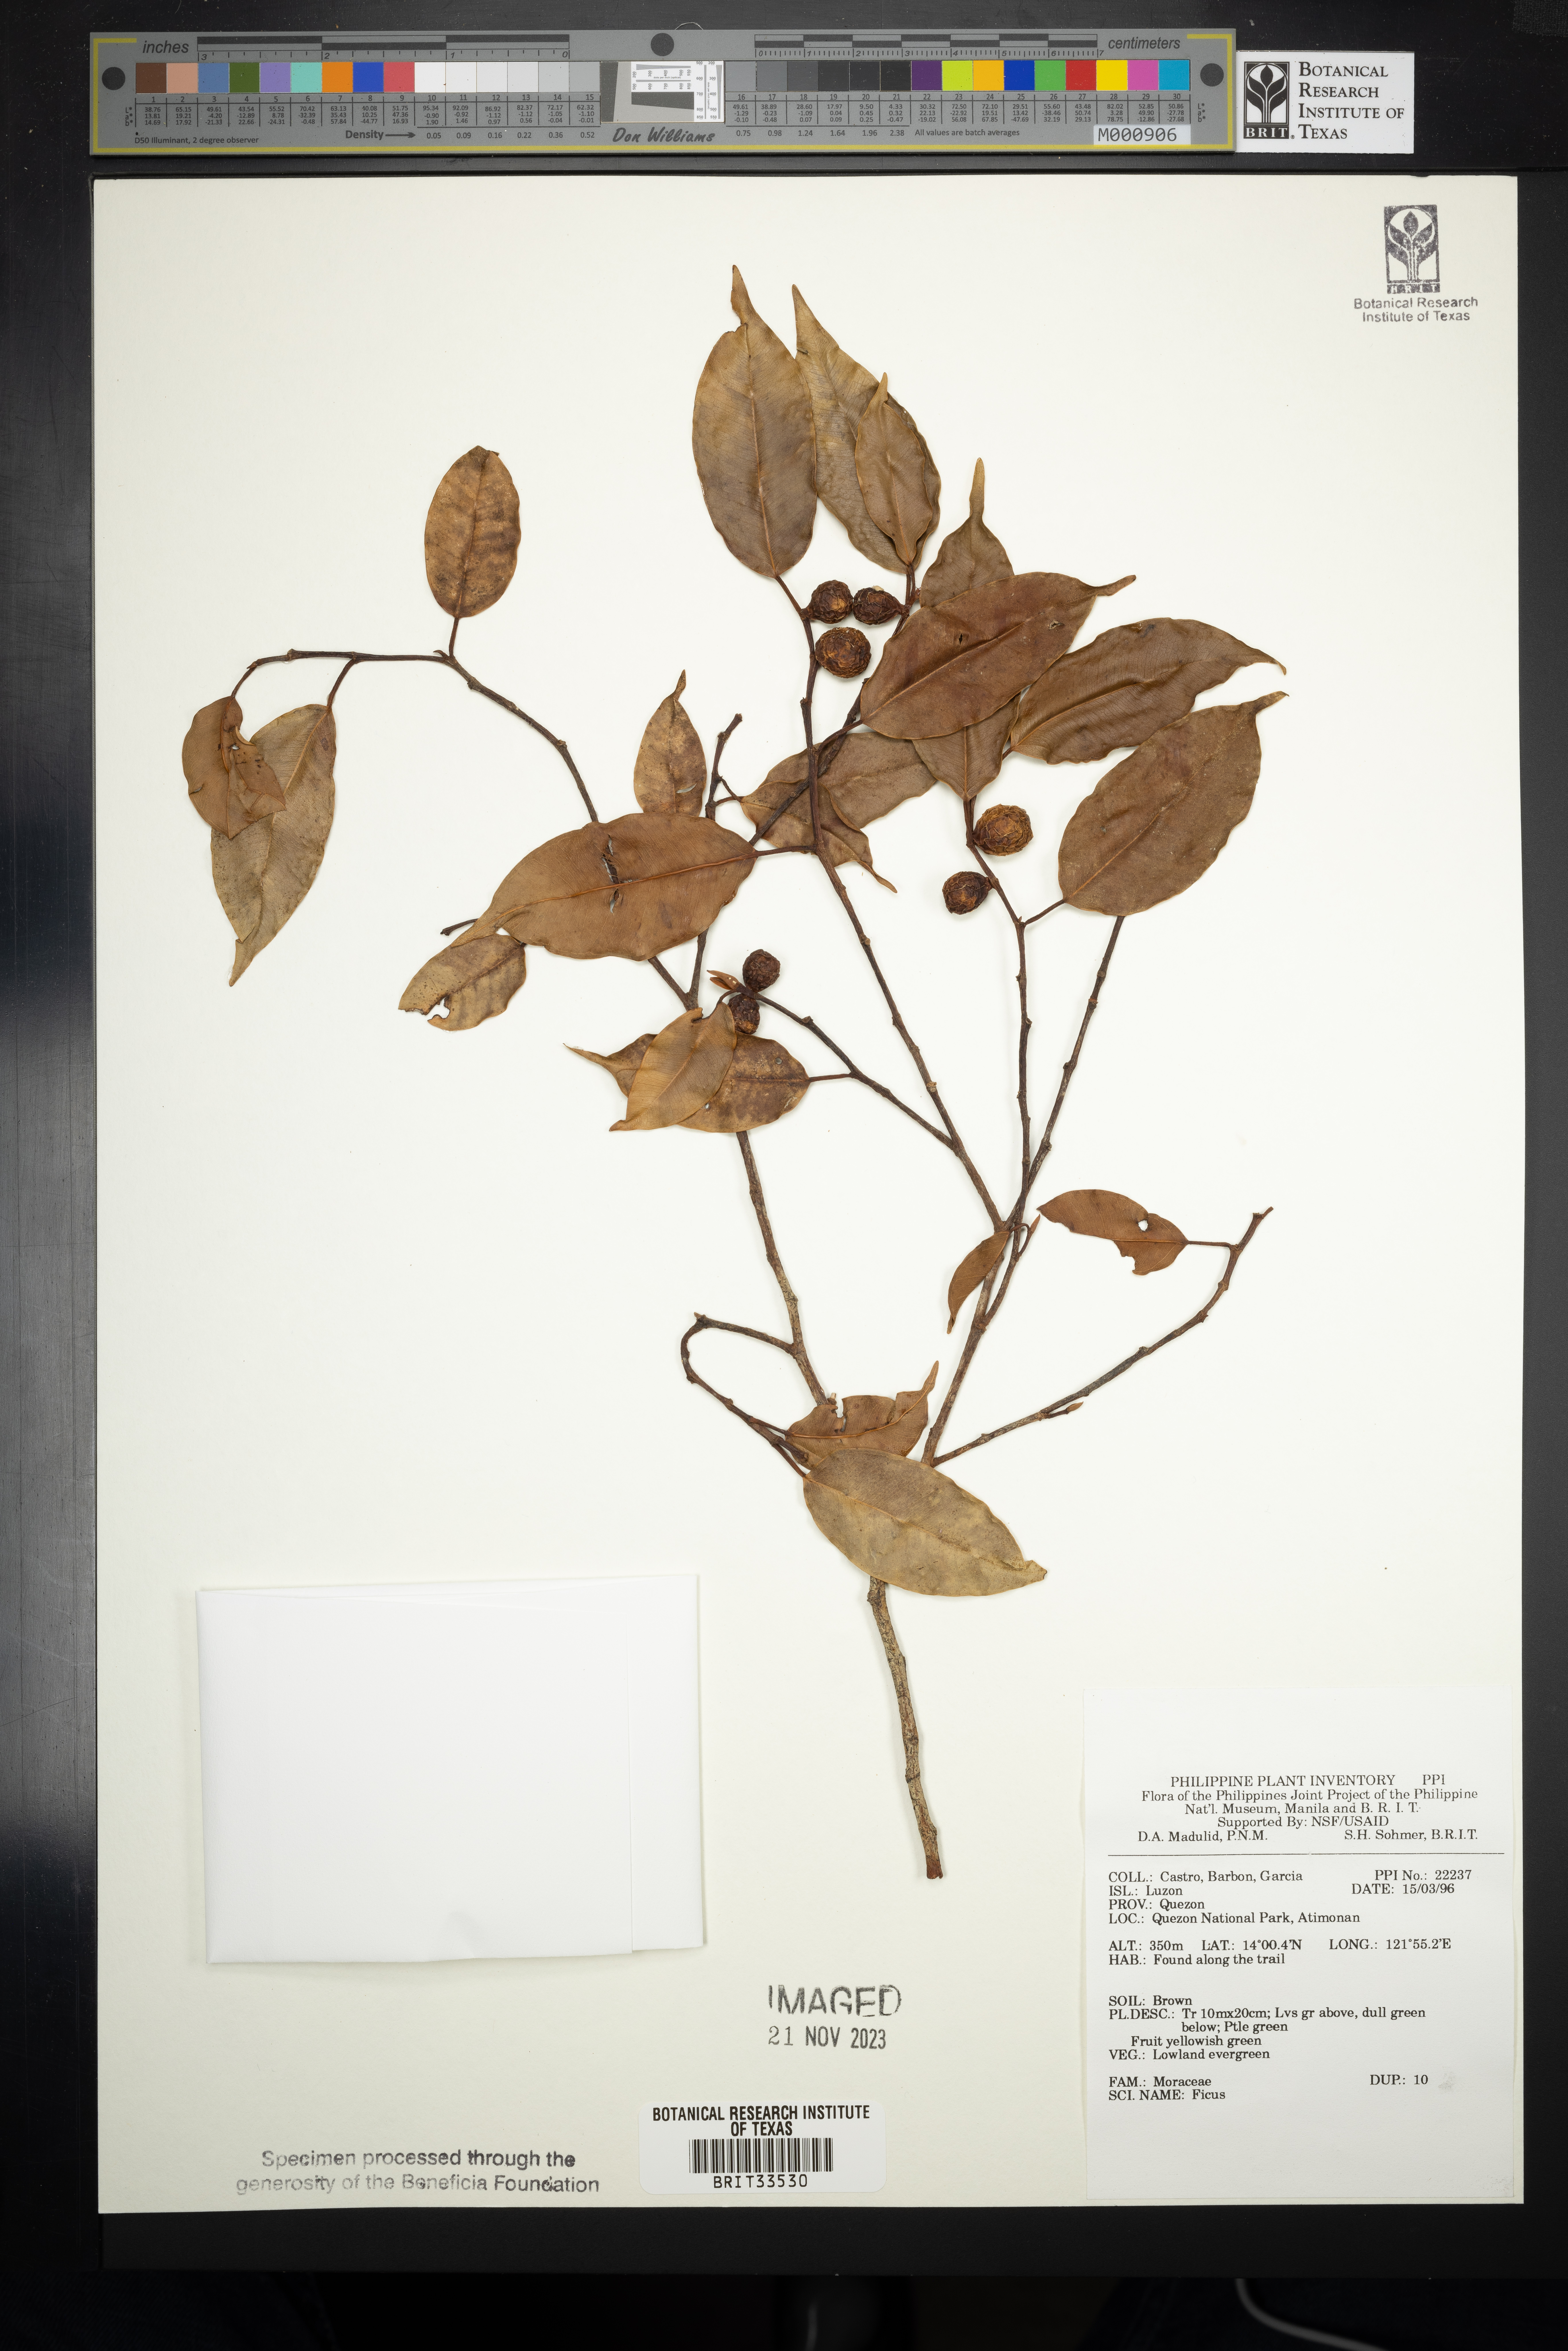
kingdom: Plantae
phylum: Tracheophyta
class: Magnoliopsida
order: Rosales
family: Moraceae
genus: Ficus
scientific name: Ficus
